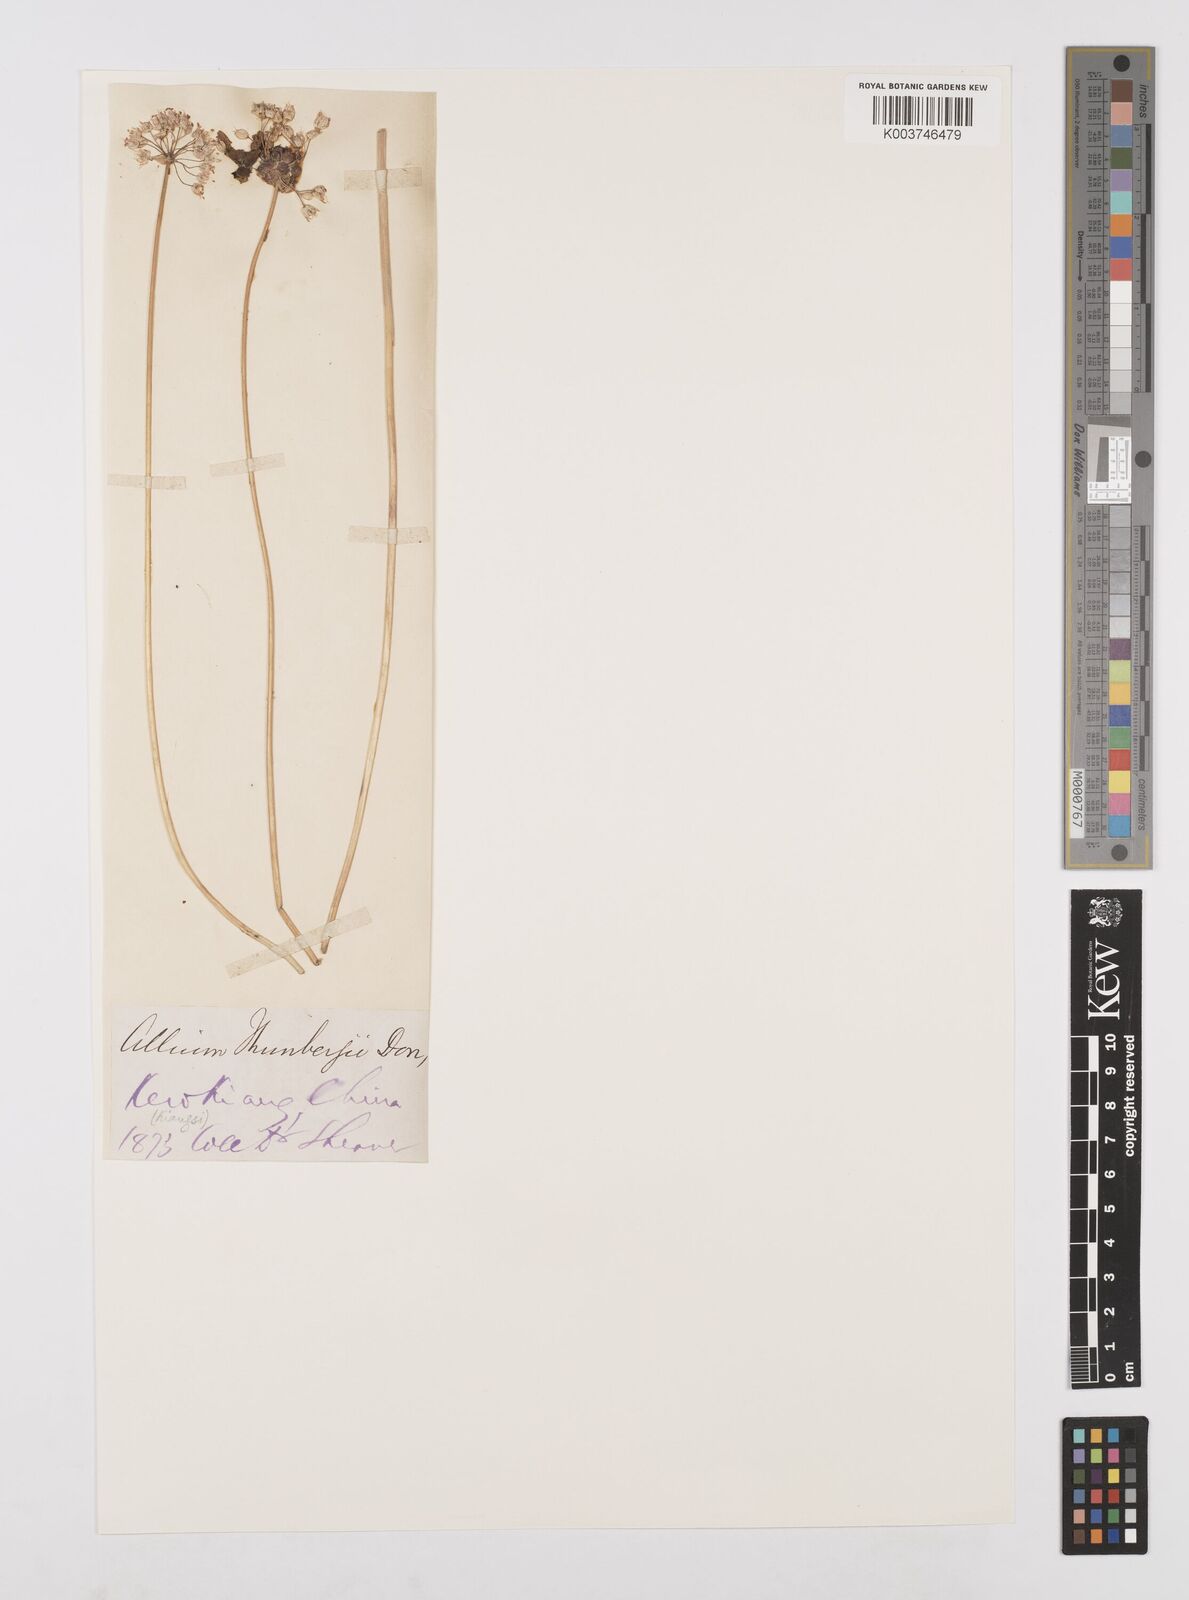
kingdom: Plantae
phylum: Tracheophyta
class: Liliopsida
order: Asparagales
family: Amaryllidaceae
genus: Allium
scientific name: Allium macrostemon
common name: Chinese garlic
